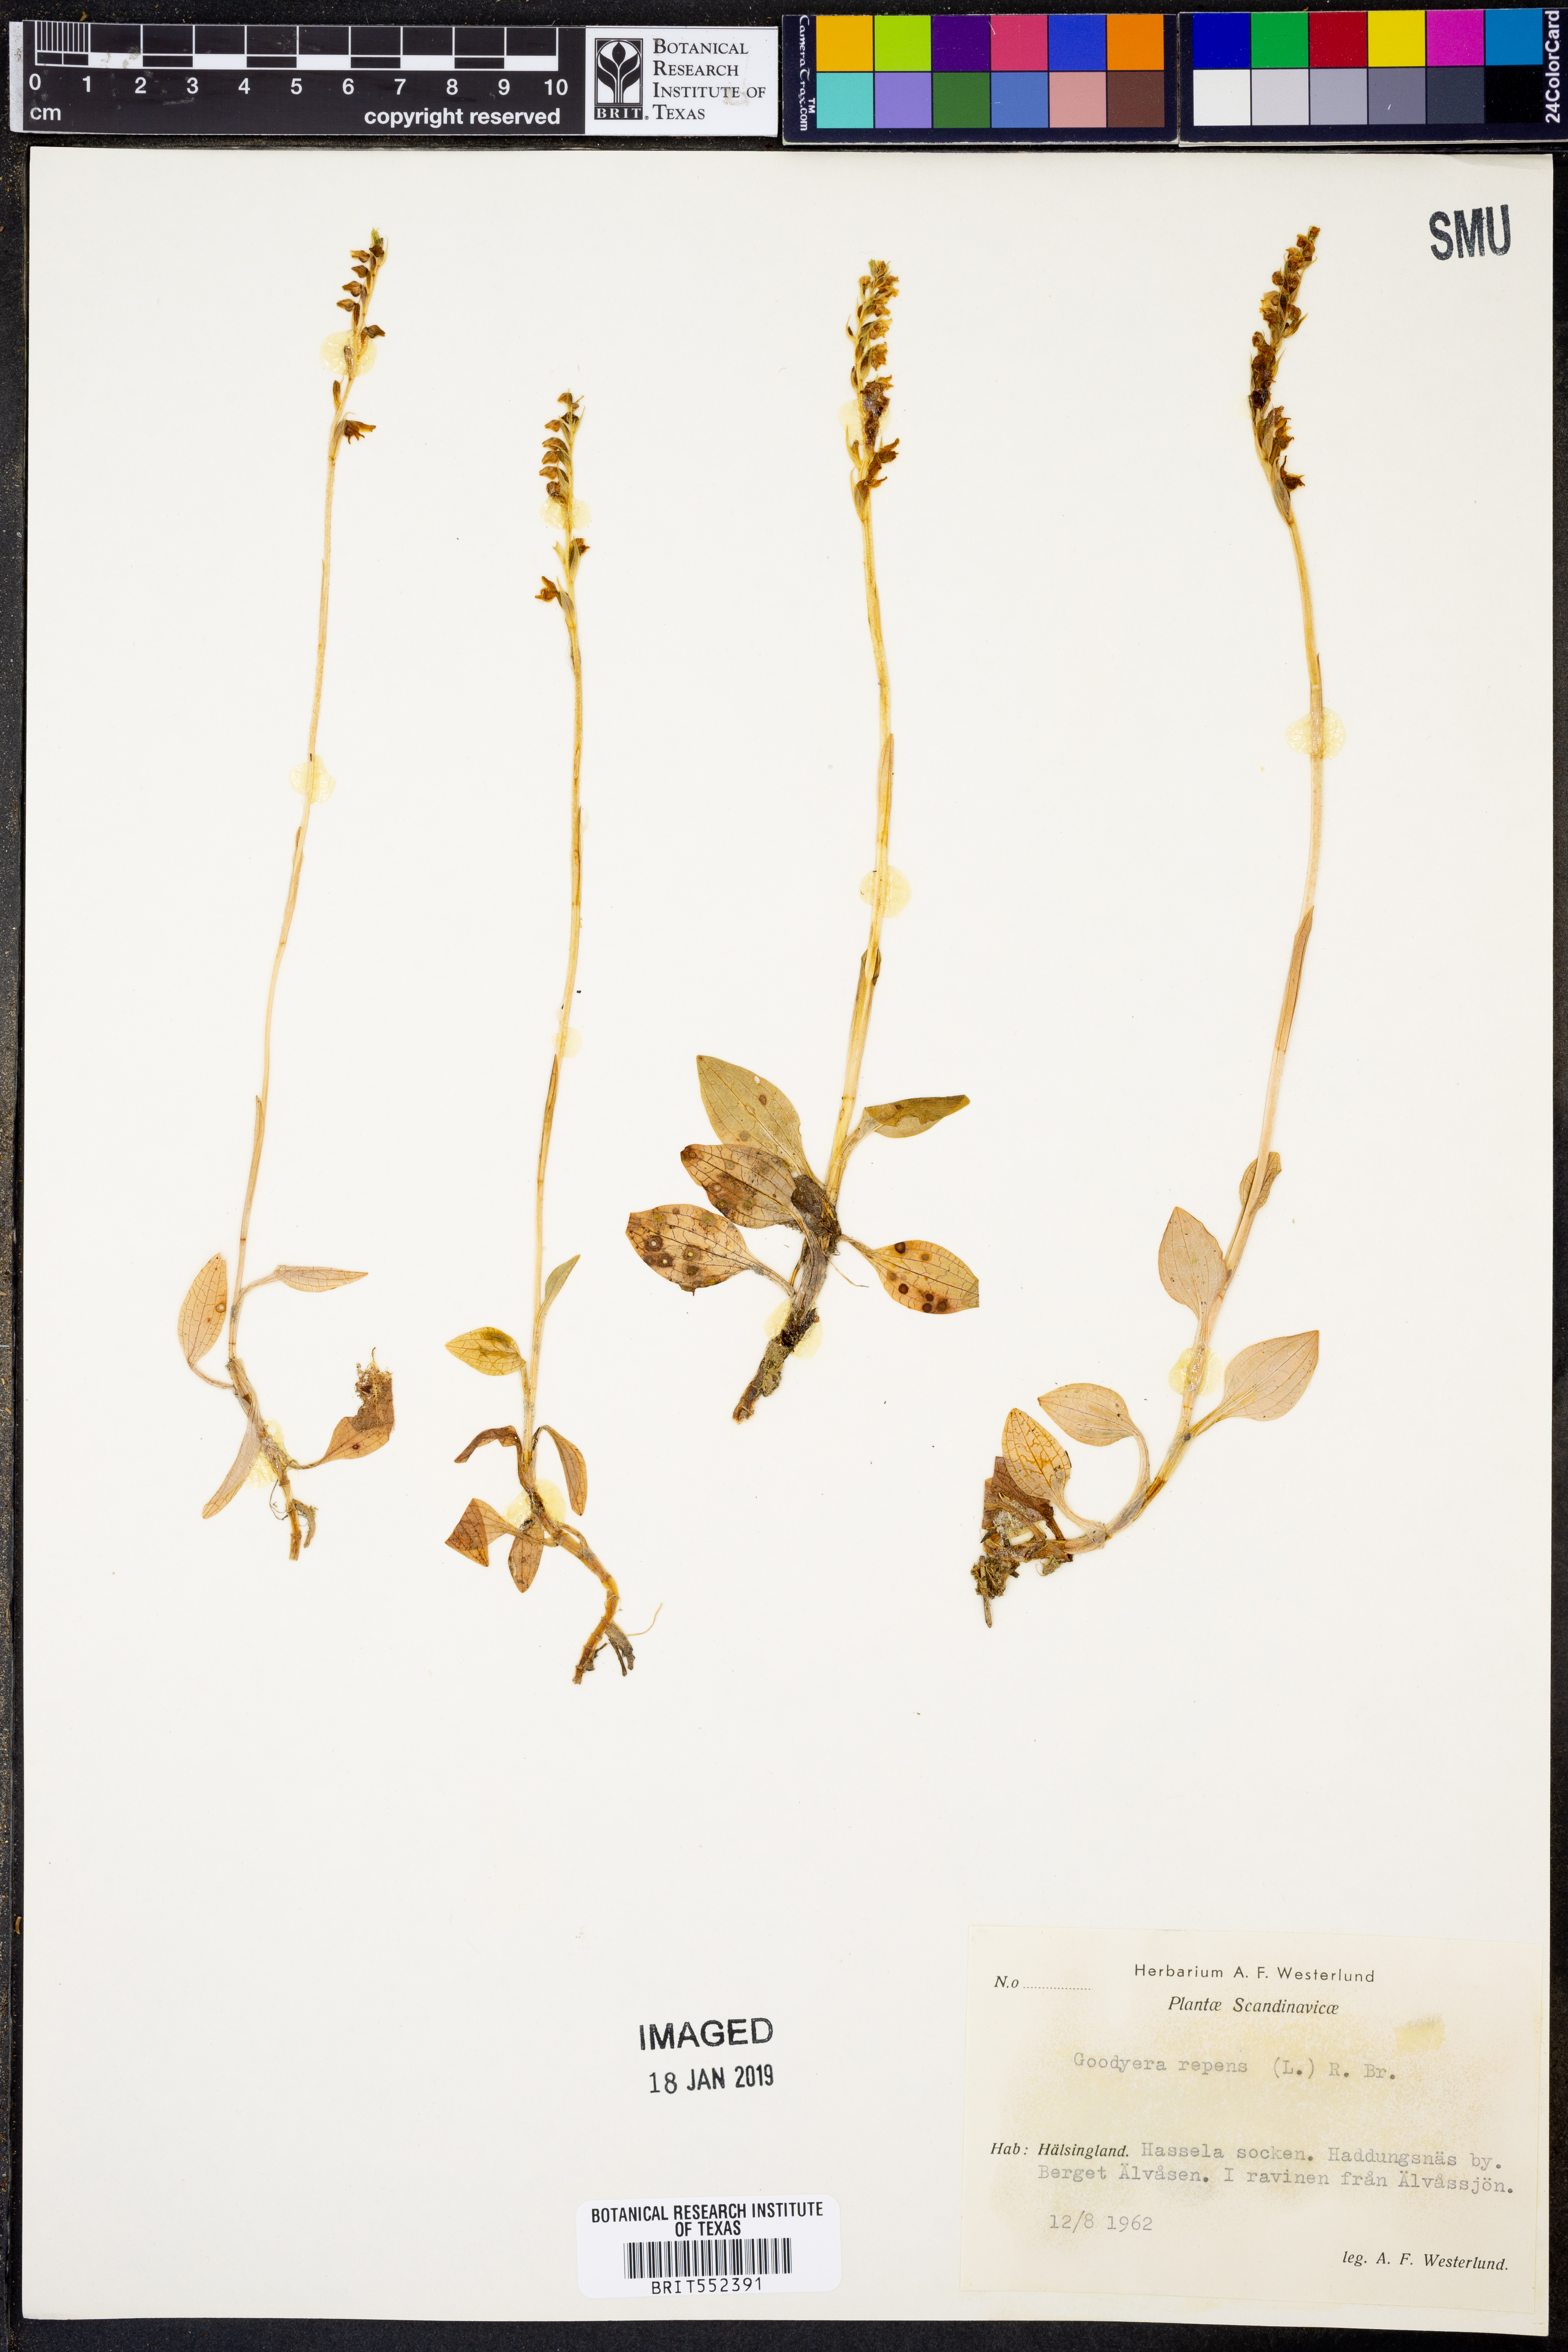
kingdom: Plantae
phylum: Tracheophyta
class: Liliopsida
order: Asparagales
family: Orchidaceae
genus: Goodyera
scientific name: Goodyera repens
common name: Creeping lady's-tresses
